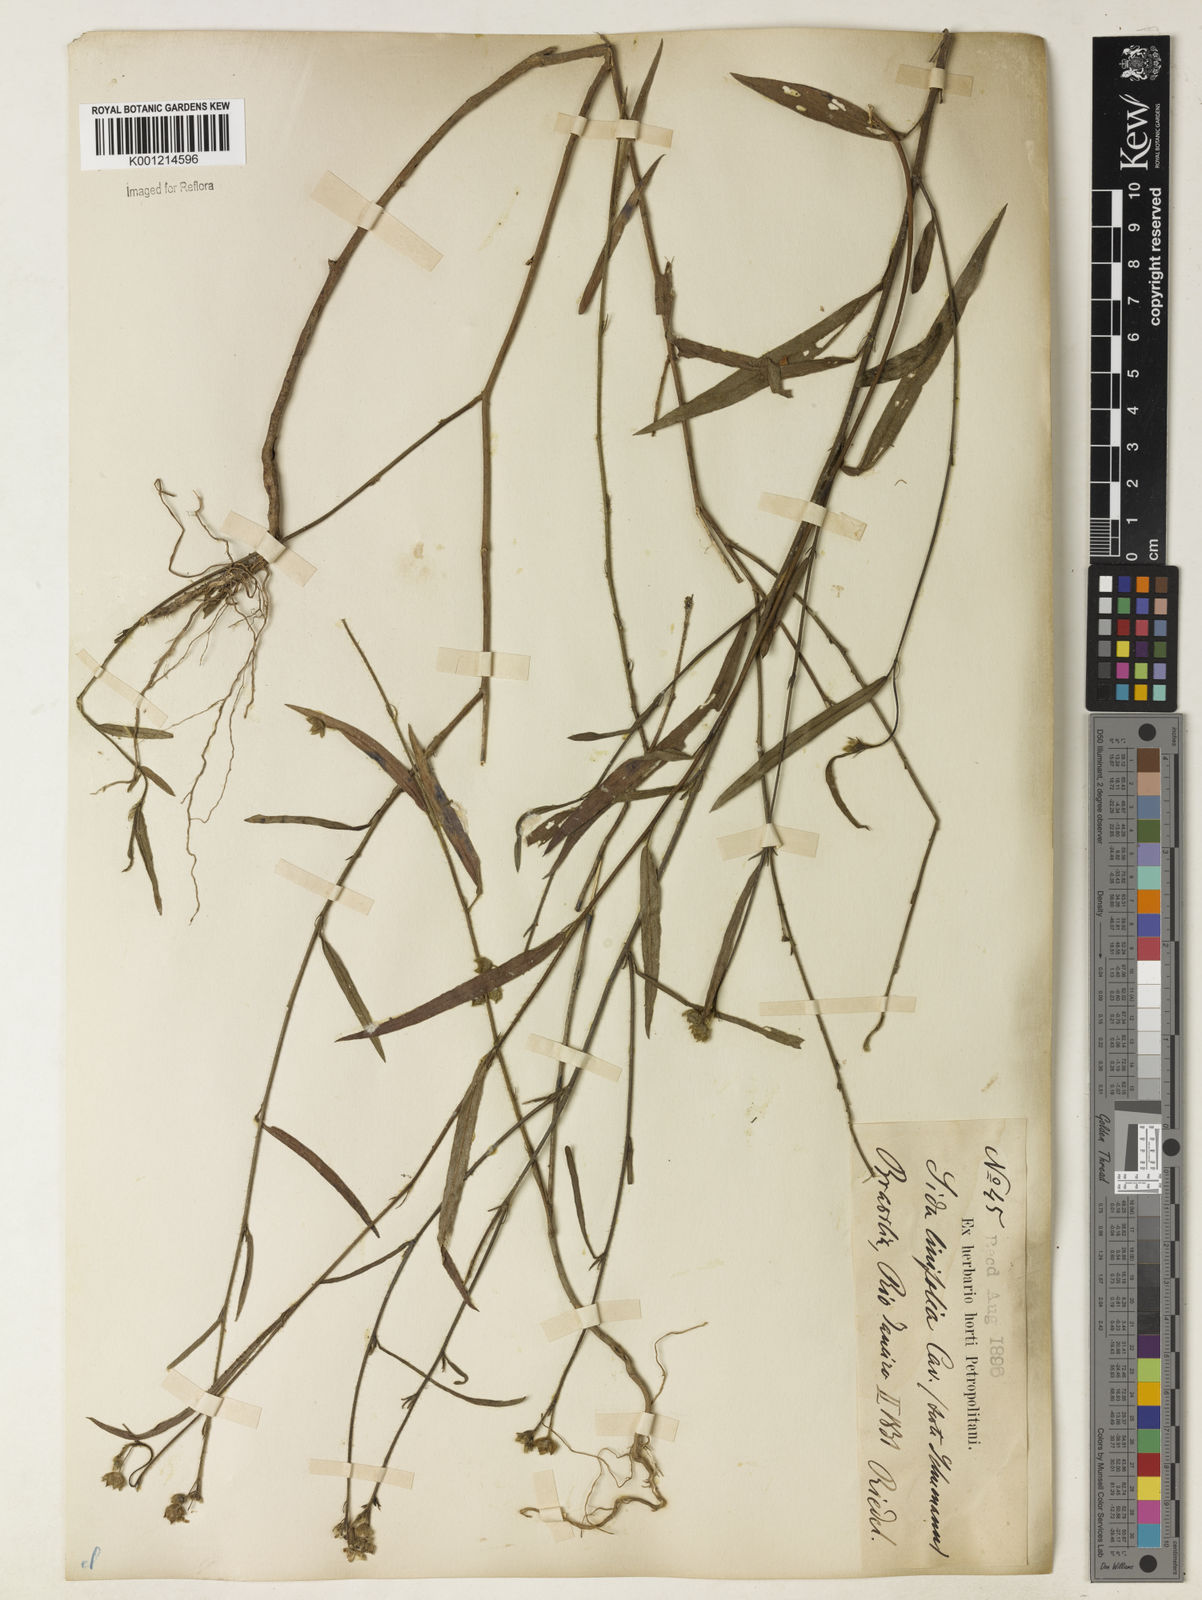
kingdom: Plantae
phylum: Tracheophyta
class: Magnoliopsida
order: Malvales
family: Malvaceae
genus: Sida
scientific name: Sida linifolia
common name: Flaxleaf fanpetals
